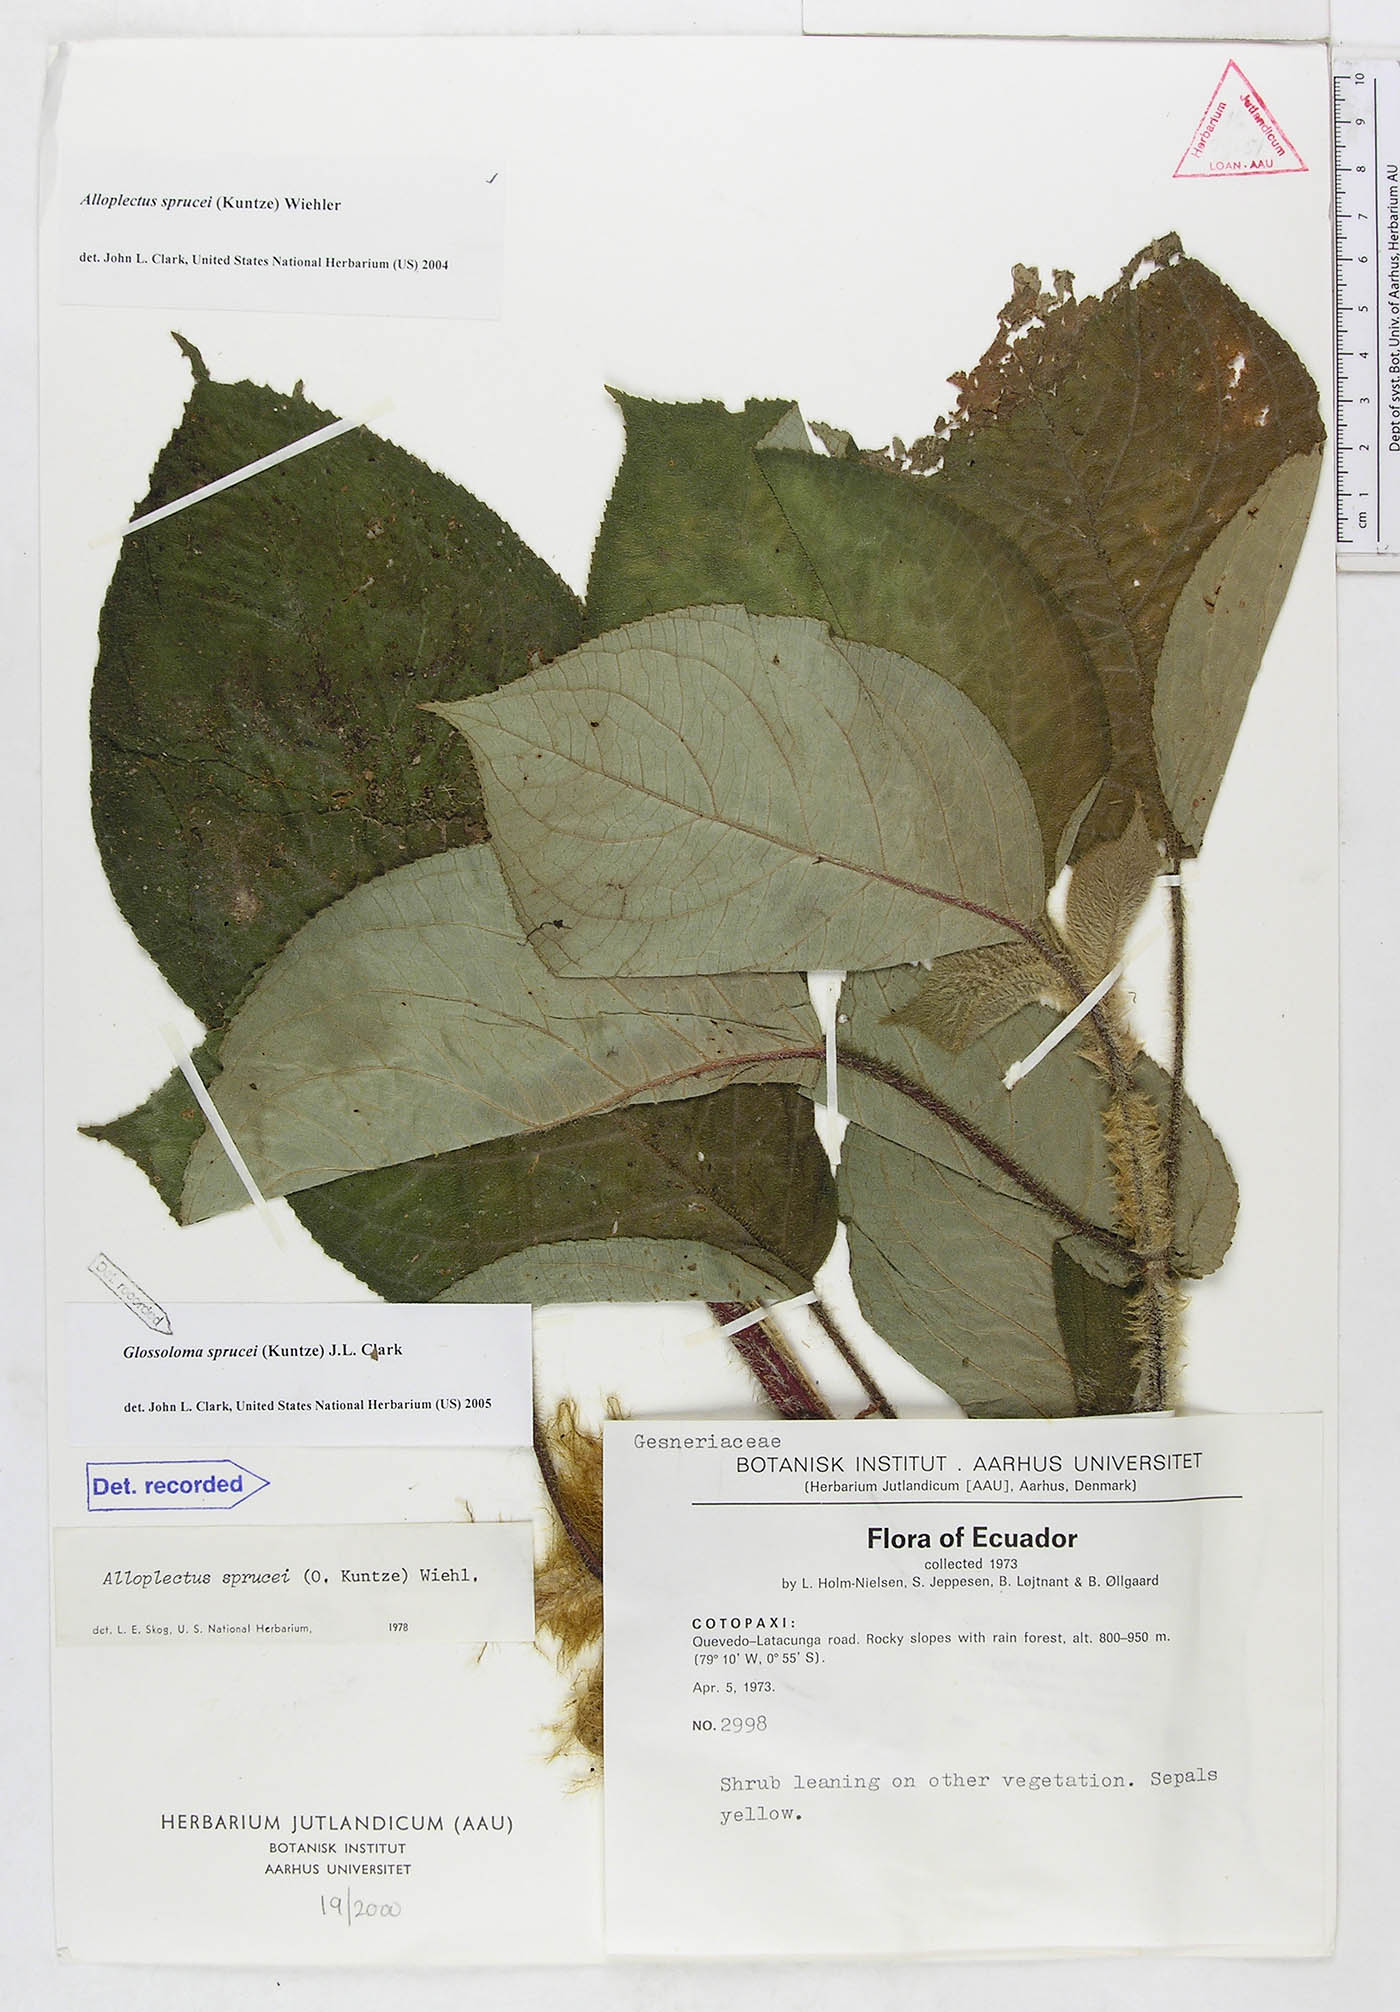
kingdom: Plantae
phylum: Tracheophyta
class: Magnoliopsida
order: Lamiales
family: Gesneriaceae
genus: Glossoloma
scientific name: Glossoloma sprucei
